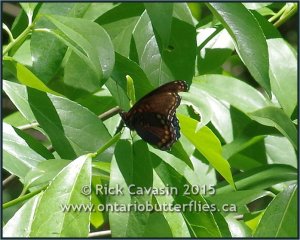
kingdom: Animalia
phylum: Arthropoda
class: Insecta
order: Lepidoptera
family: Nymphalidae
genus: Limenitis
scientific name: Limenitis astyanax
